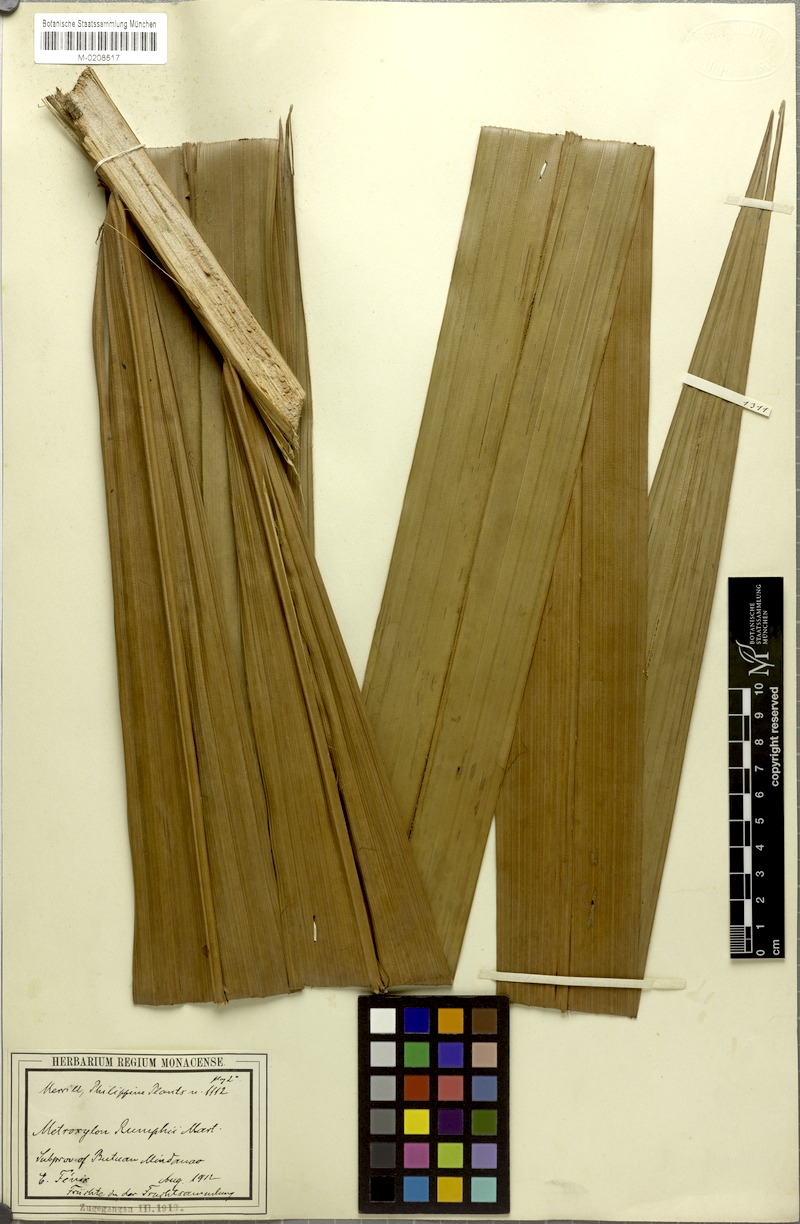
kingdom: Plantae
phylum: Tracheophyta
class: Liliopsida
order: Arecales
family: Arecaceae
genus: Metroxylon
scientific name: Metroxylon sagu
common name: Sago palm
